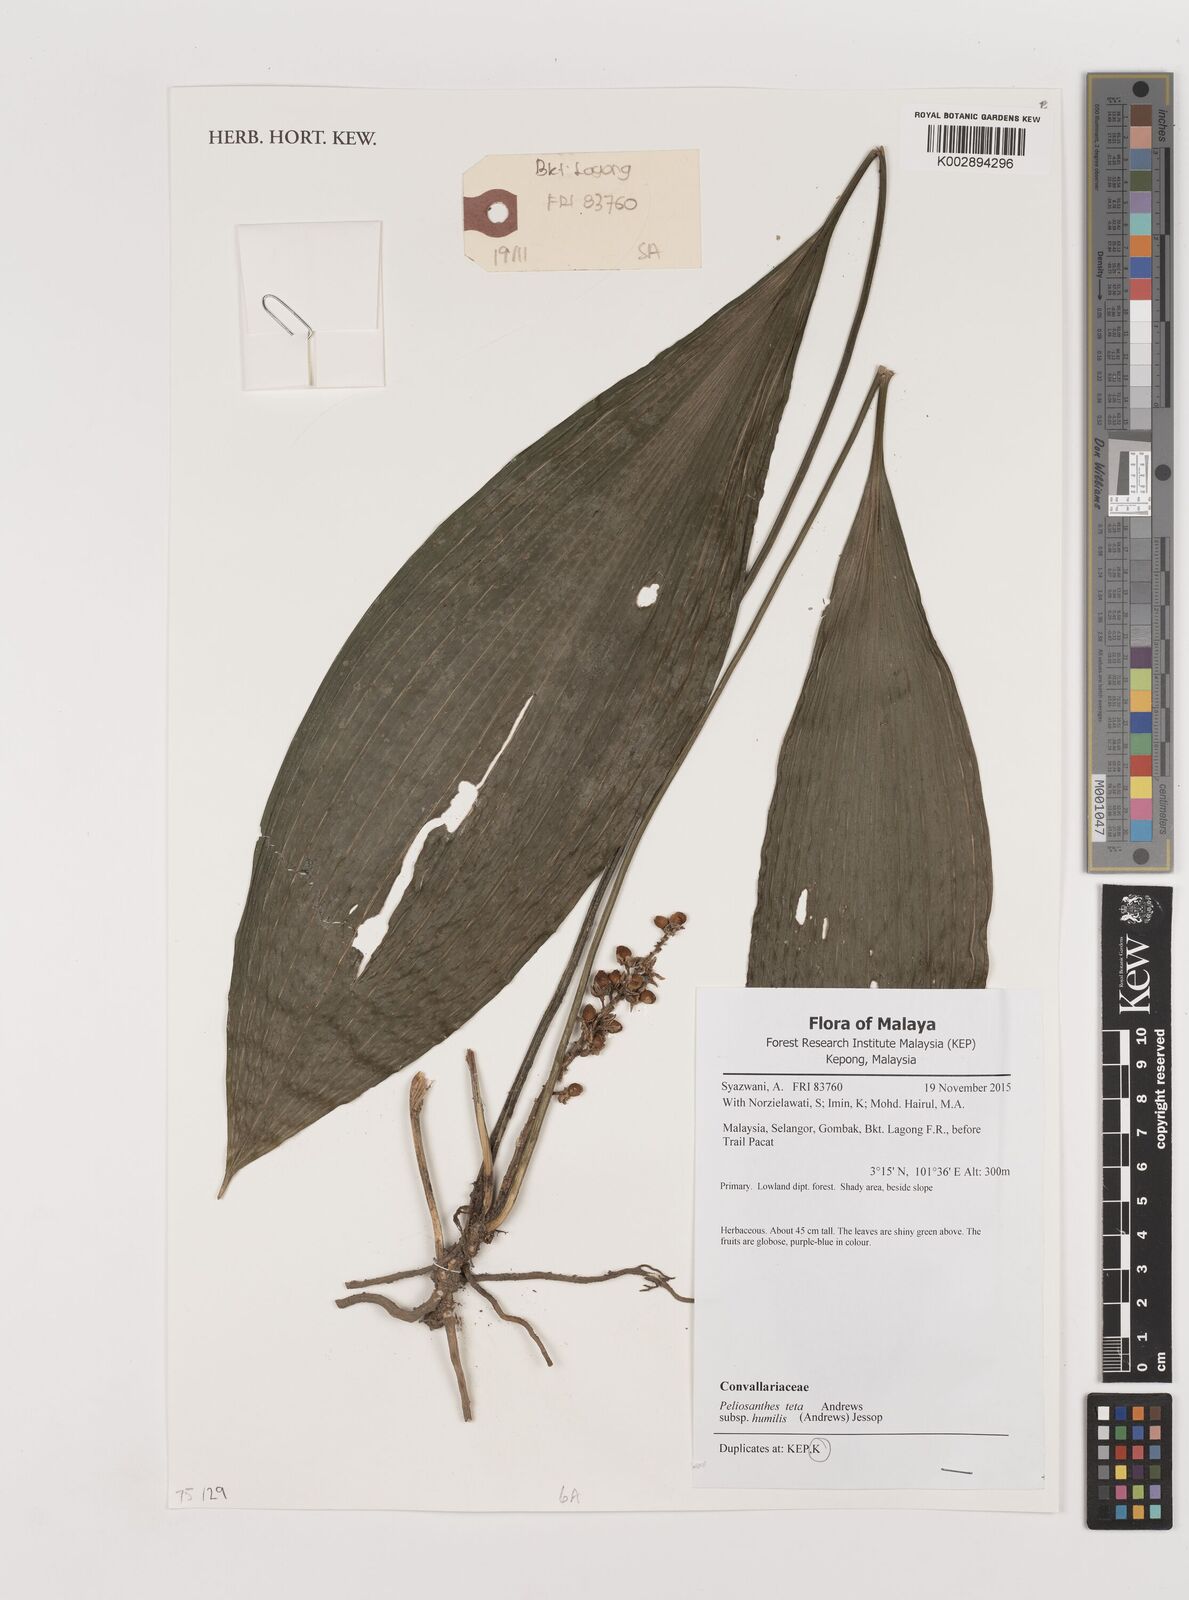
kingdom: Plantae
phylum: Tracheophyta
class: Liliopsida
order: Asparagales
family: Asparagaceae
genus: Peliosanthes
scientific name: Peliosanthes teta
